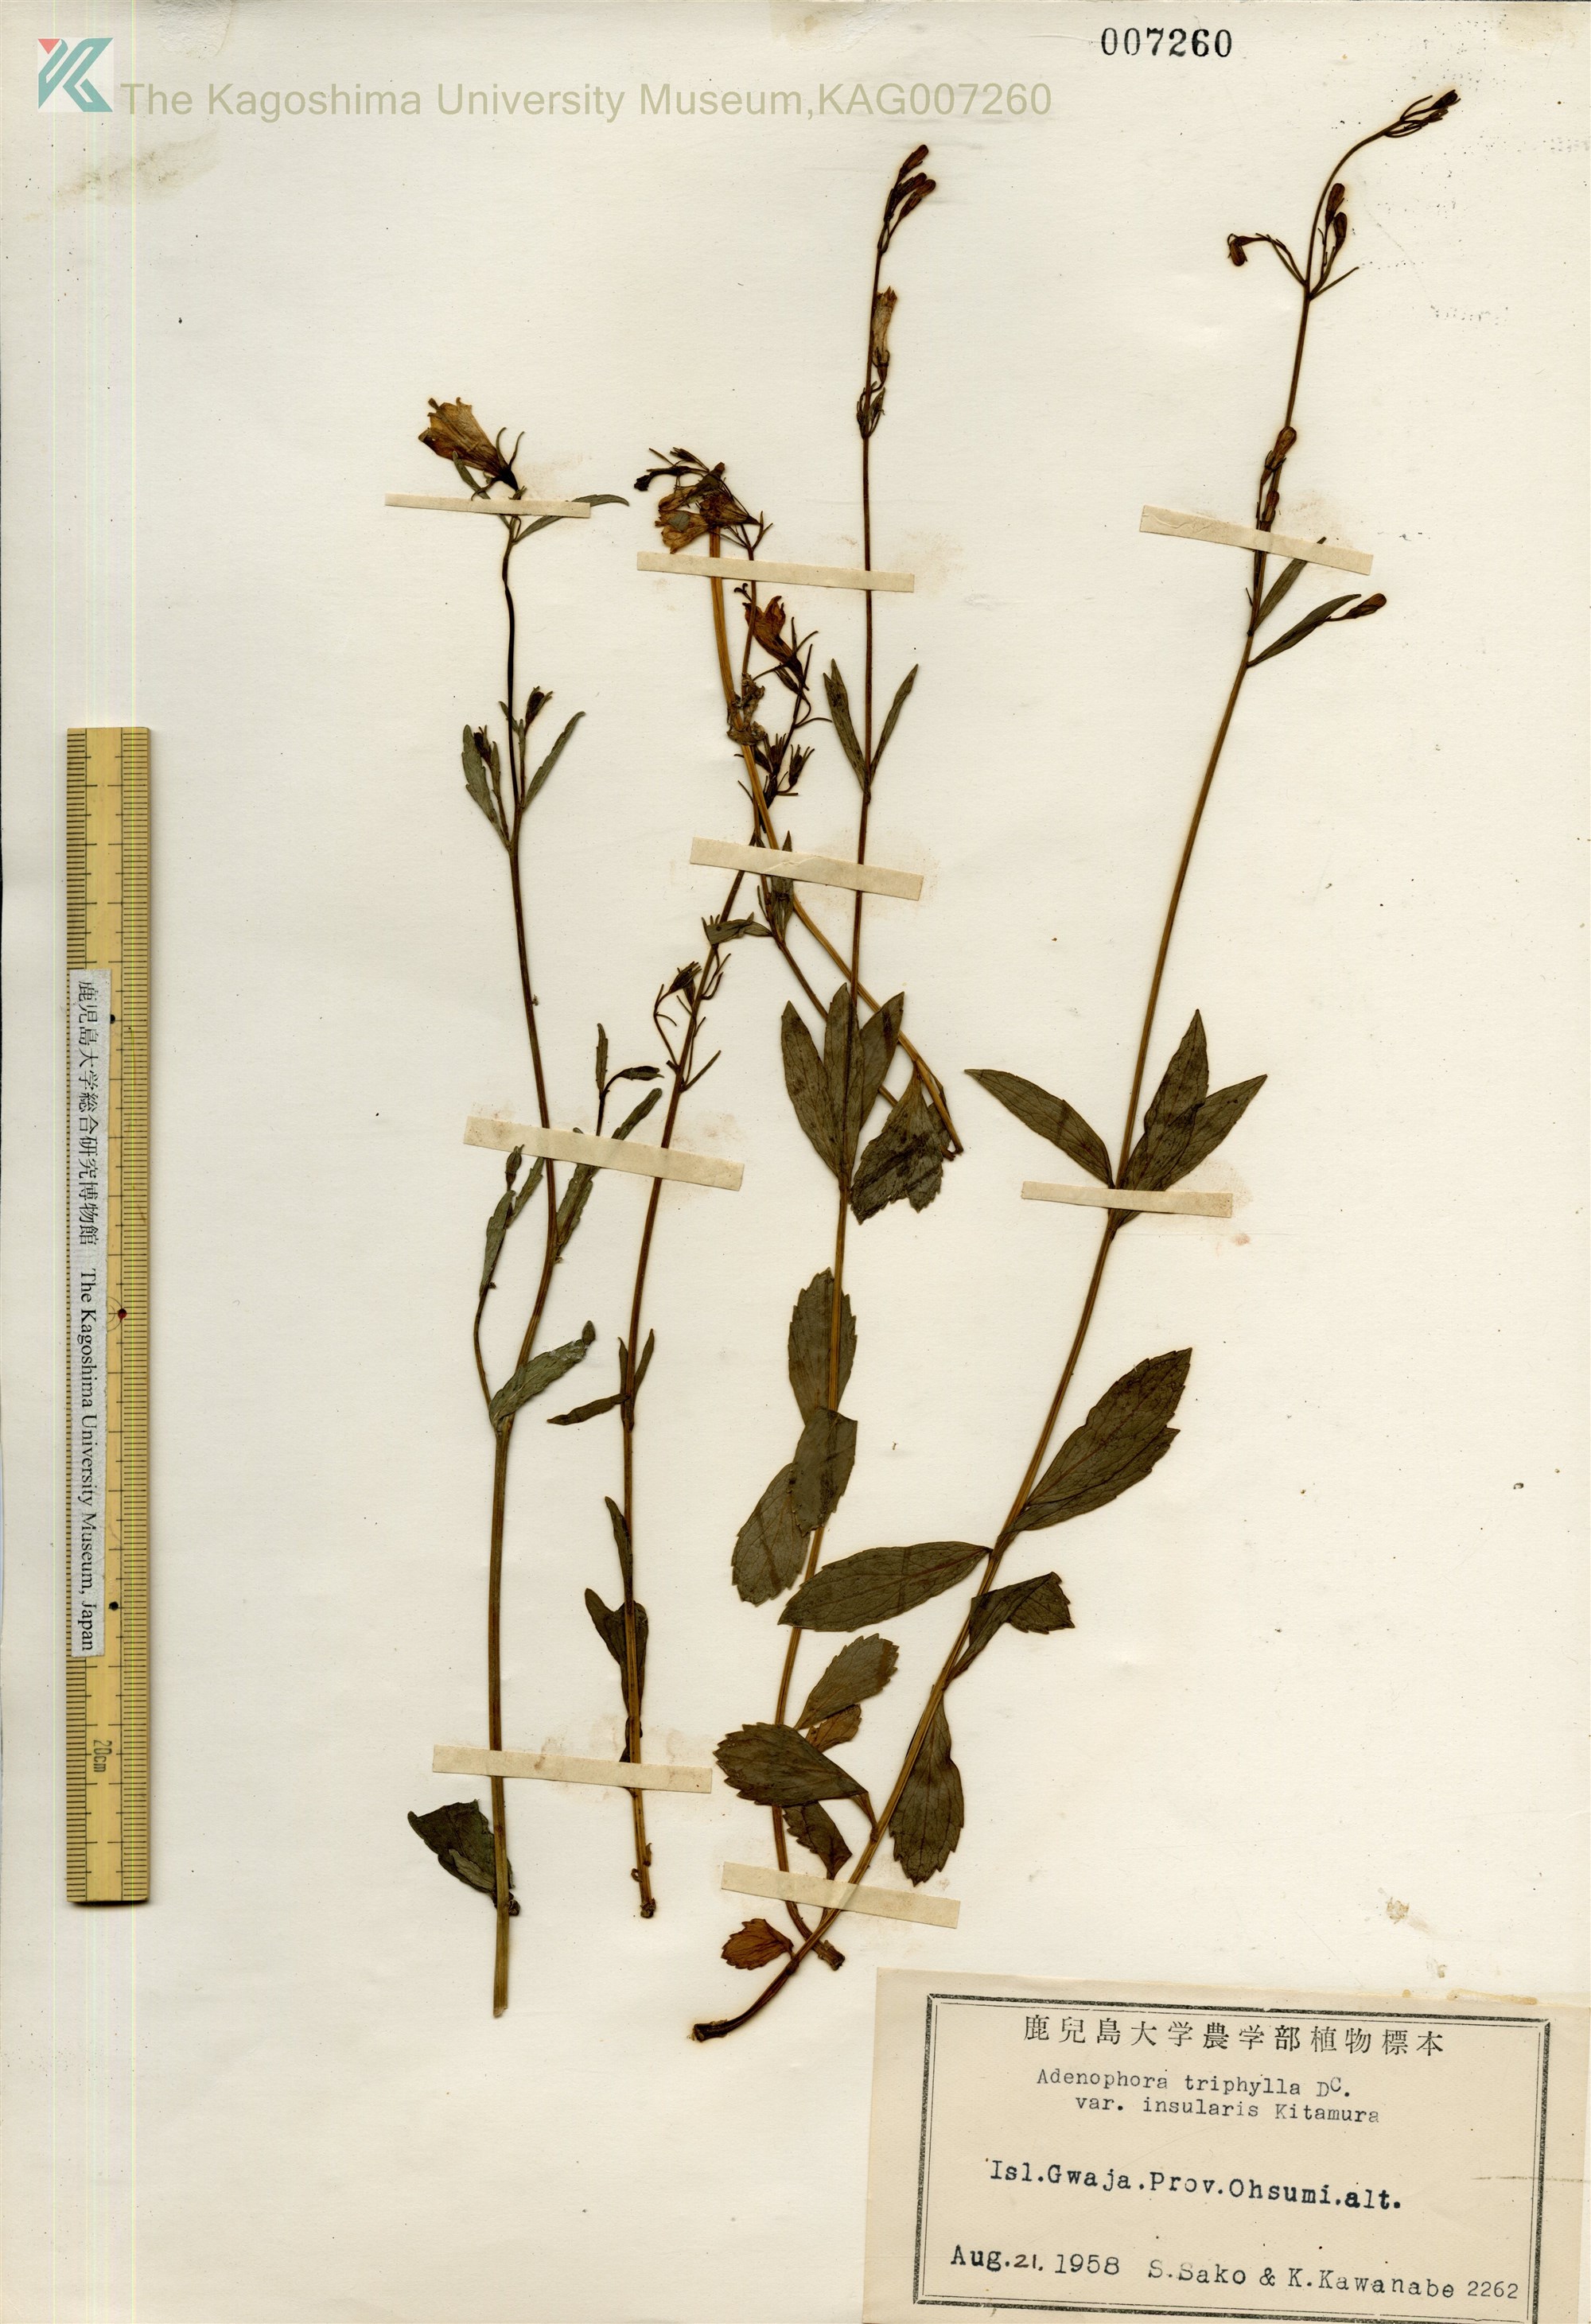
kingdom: Plantae
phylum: Tracheophyta
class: Magnoliopsida
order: Asterales
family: Campanulaceae
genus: Adenophora
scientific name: Adenophora tashiroi
